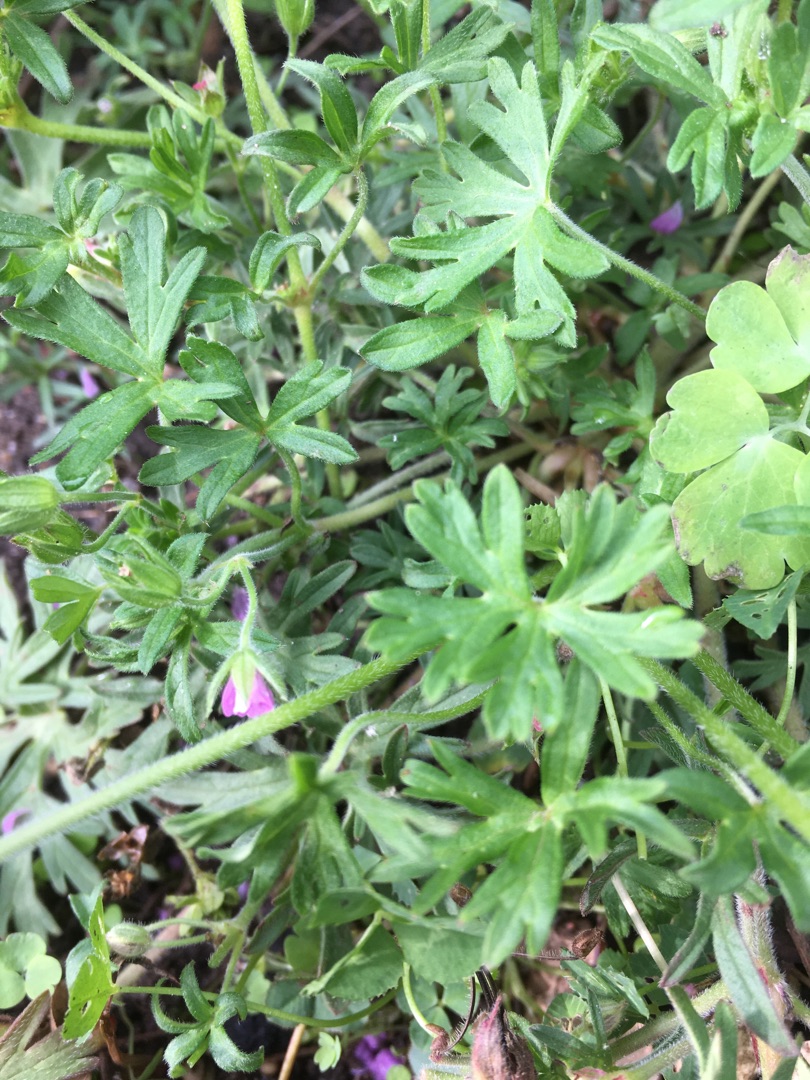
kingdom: Plantae
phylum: Tracheophyta
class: Magnoliopsida
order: Geraniales
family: Geraniaceae
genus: Geranium
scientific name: Geranium dissectum
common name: Kløftet storkenæb
